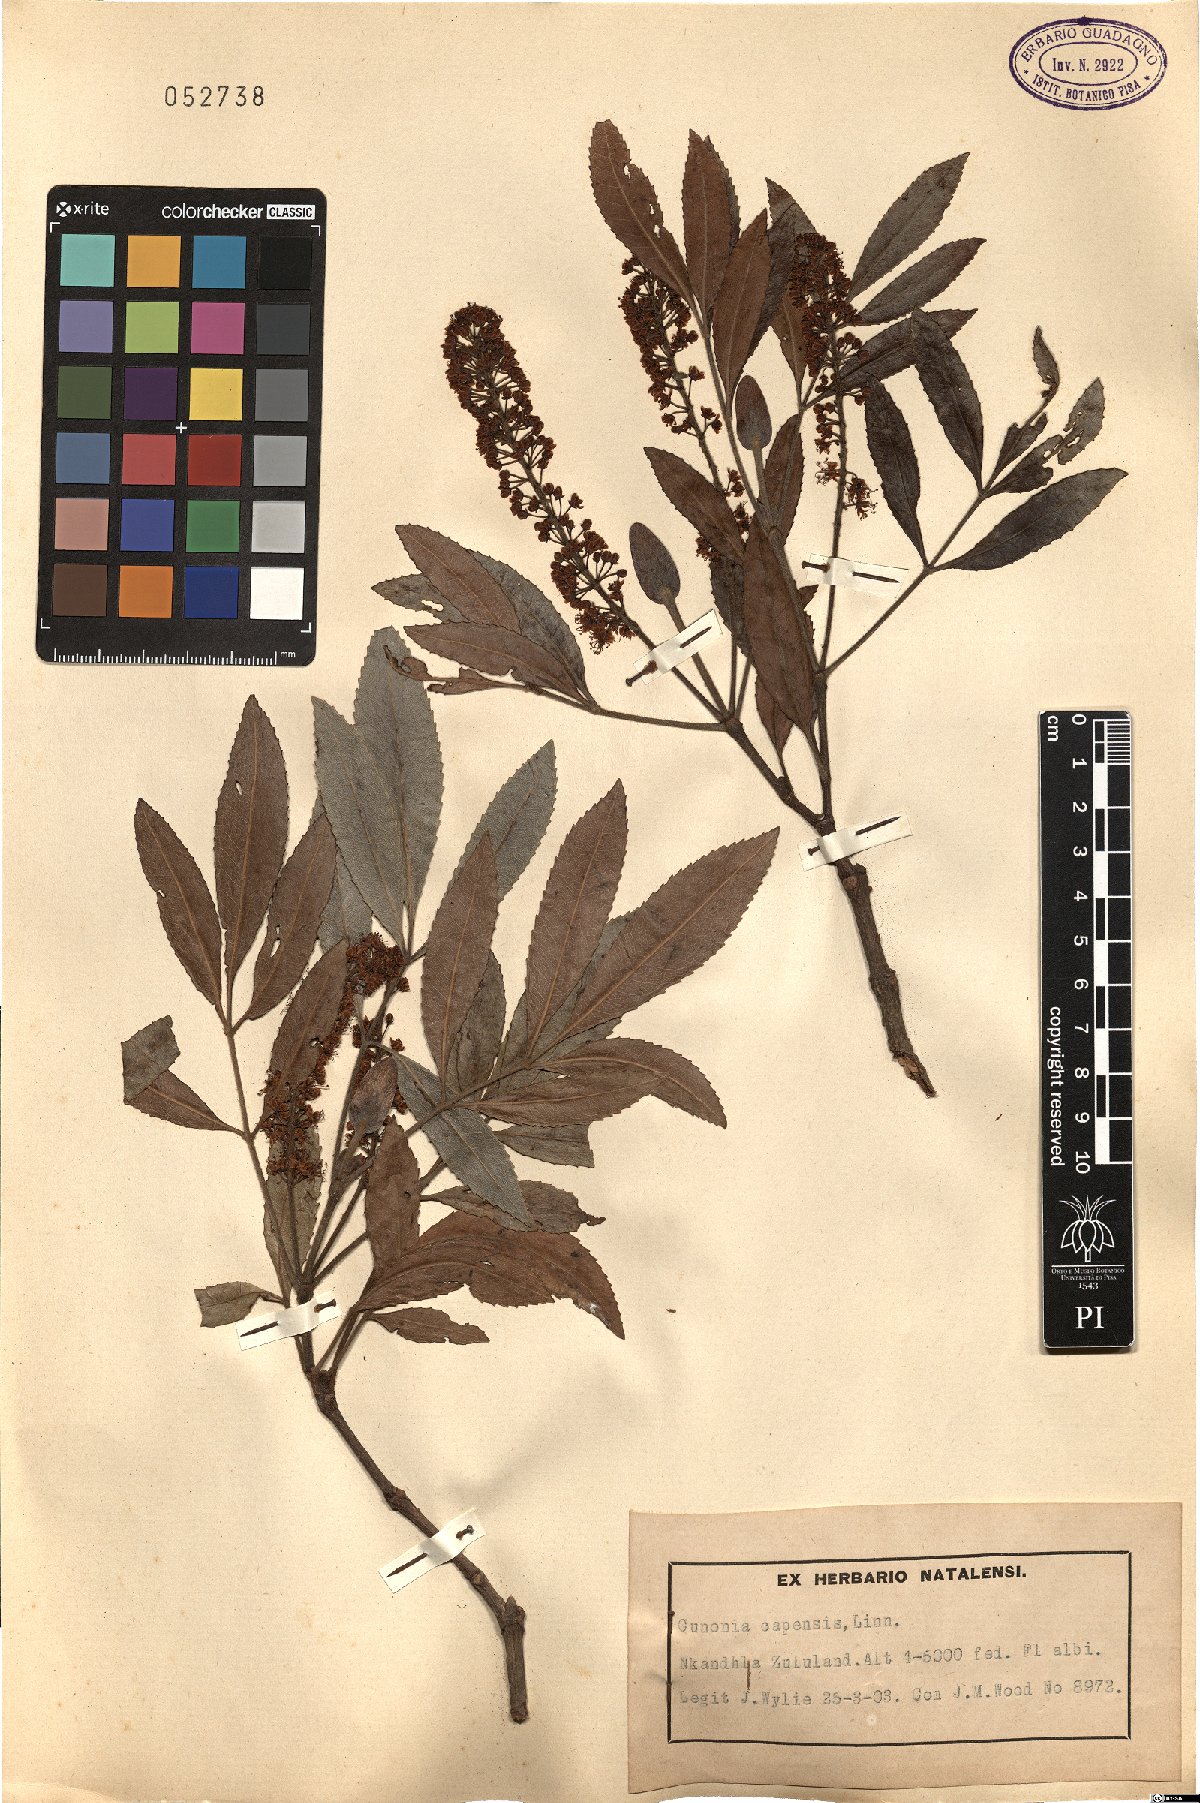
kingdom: Plantae
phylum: Tracheophyta
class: Magnoliopsida
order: Oxalidales
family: Cunoniaceae
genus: Cunonia
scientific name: Cunonia capensis
